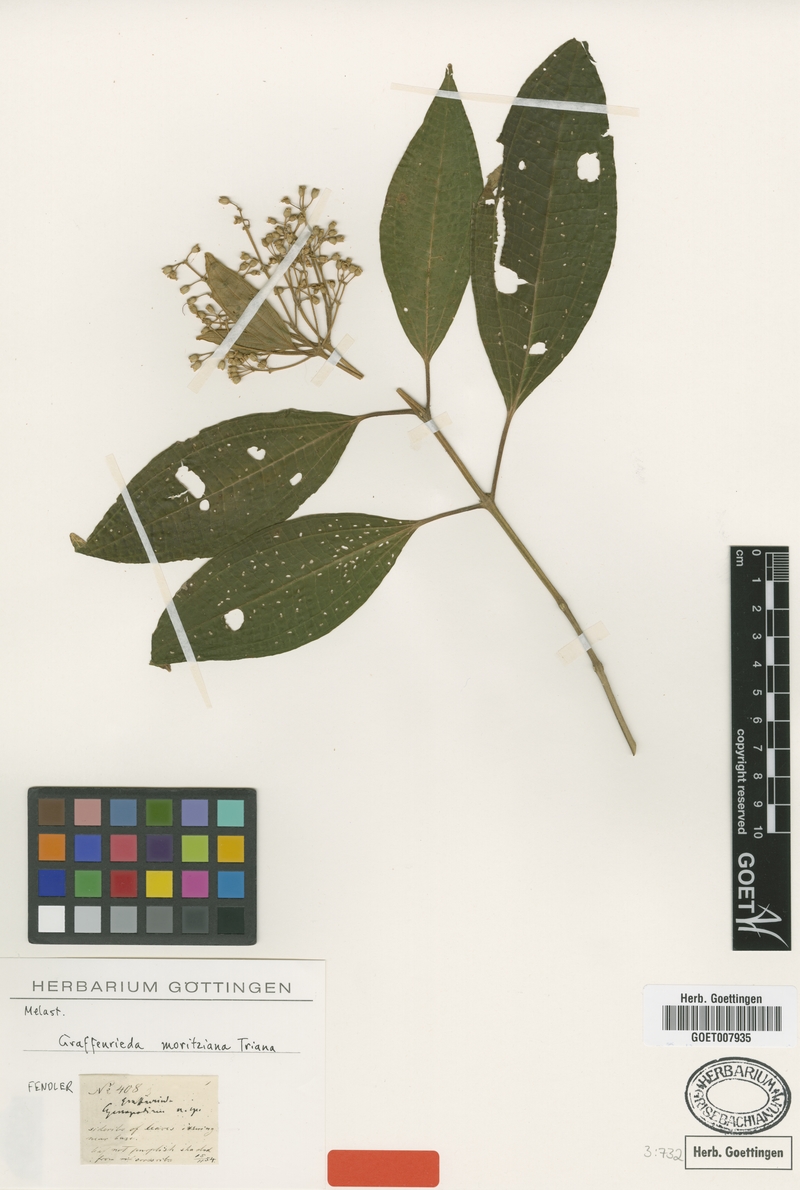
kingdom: Plantae
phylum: Tracheophyta
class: Magnoliopsida
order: Myrtales
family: Melastomataceae
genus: Graffenrieda
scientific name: Graffenrieda moritziana
